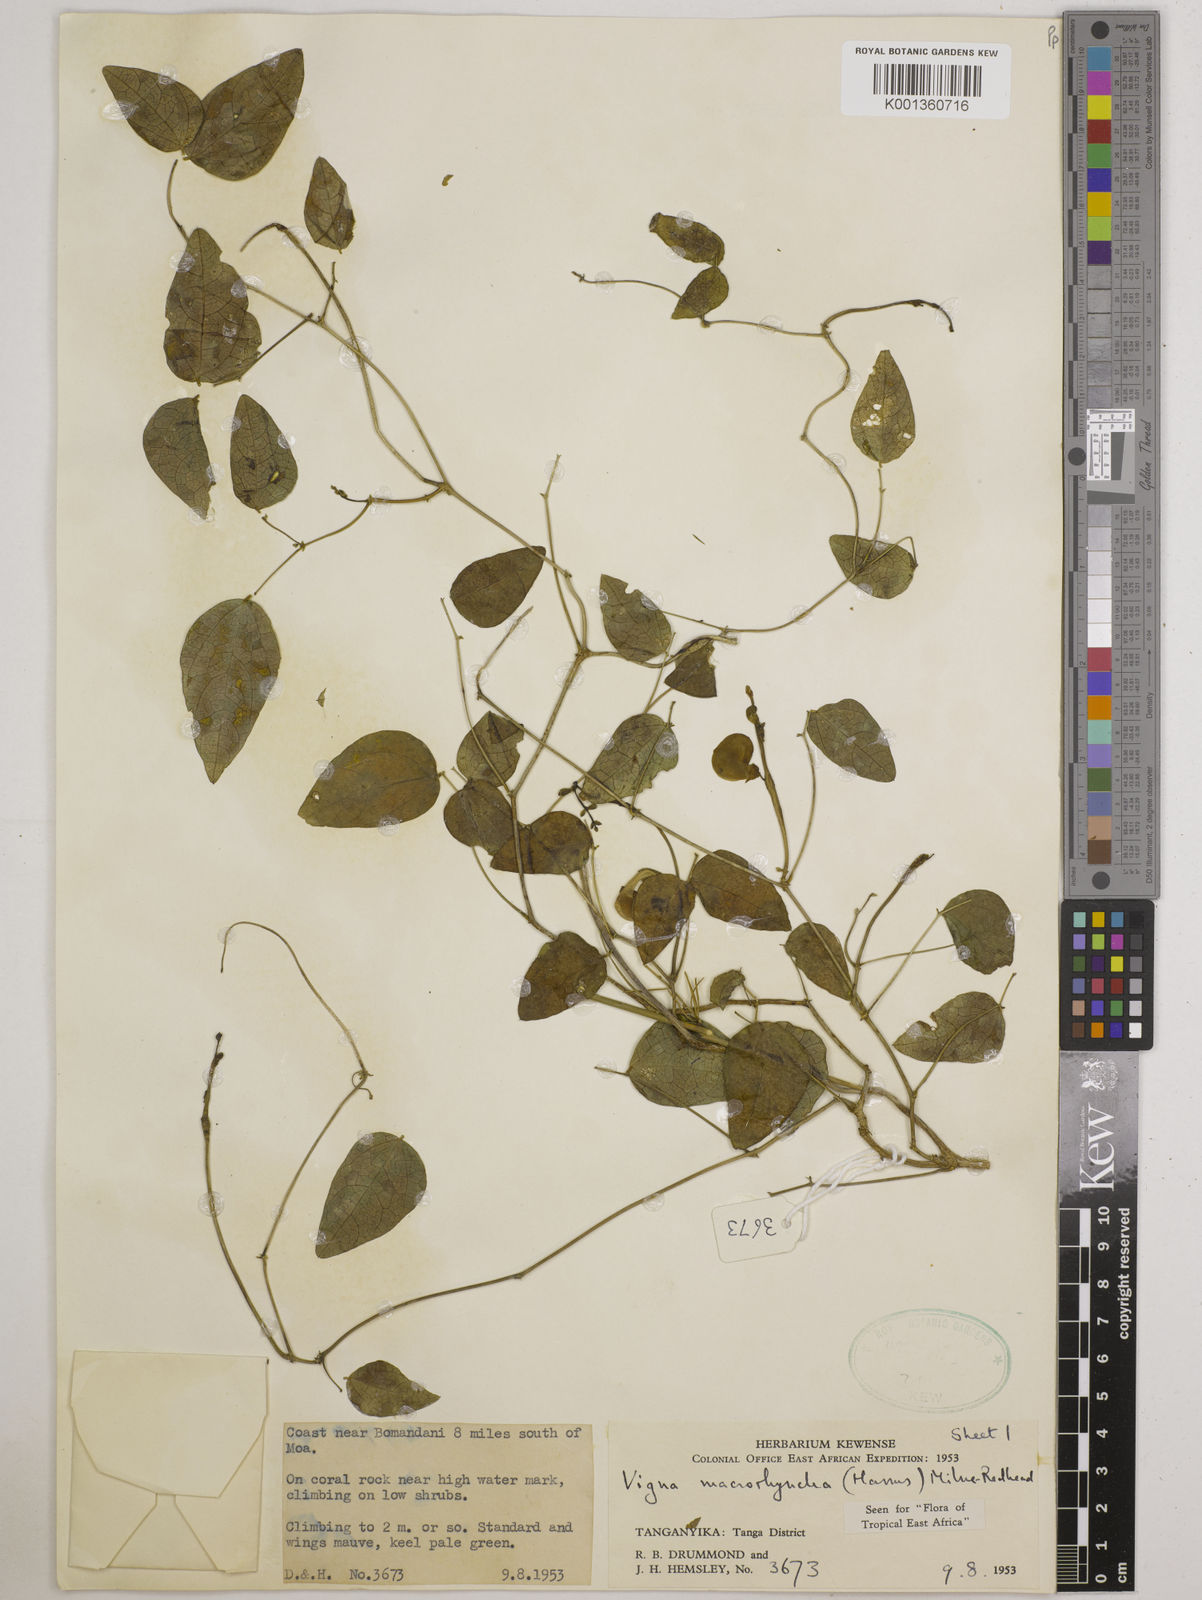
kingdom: Plantae
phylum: Tracheophyta
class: Magnoliopsida
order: Fabales
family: Fabaceae
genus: Wajira
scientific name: Wajira grahamiana
